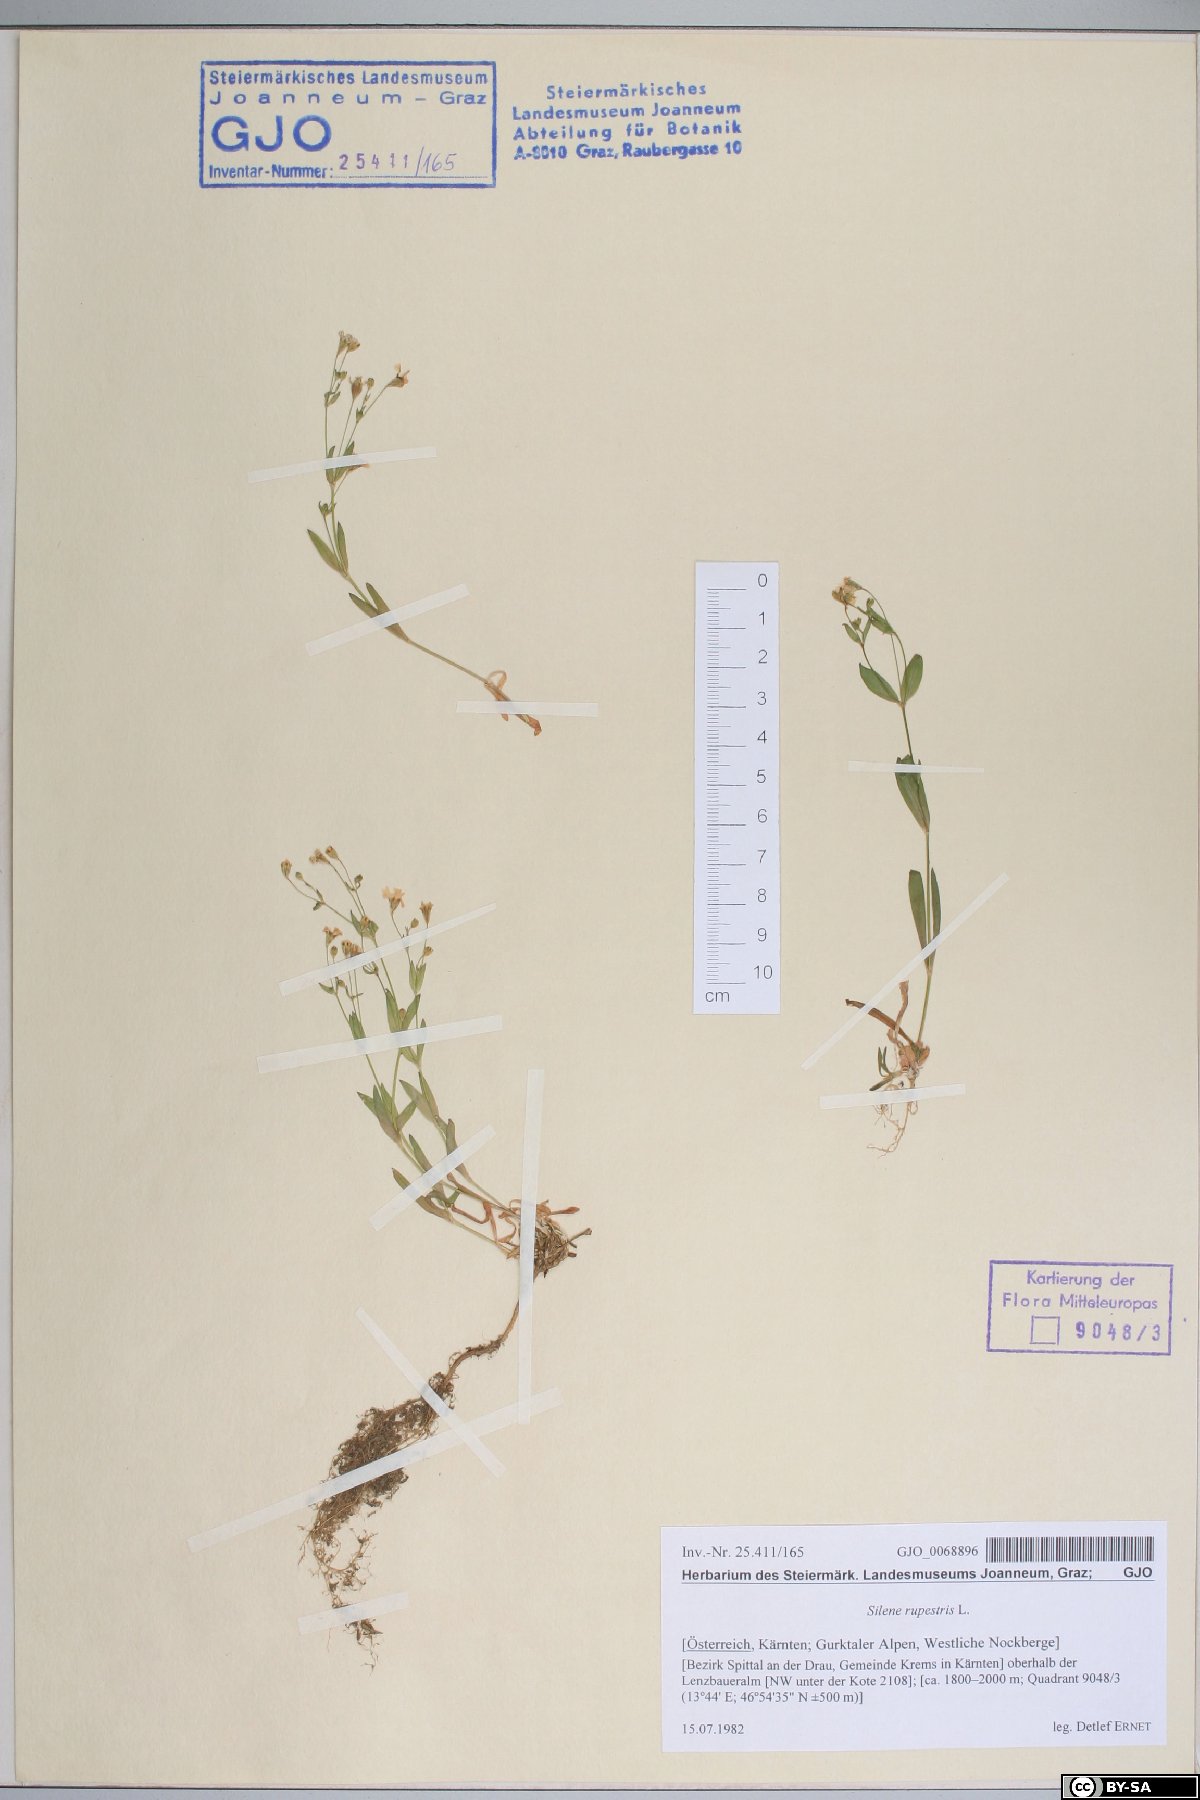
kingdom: Plantae
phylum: Tracheophyta
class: Magnoliopsida
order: Caryophyllales
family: Caryophyllaceae
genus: Atocion
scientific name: Atocion rupestre
